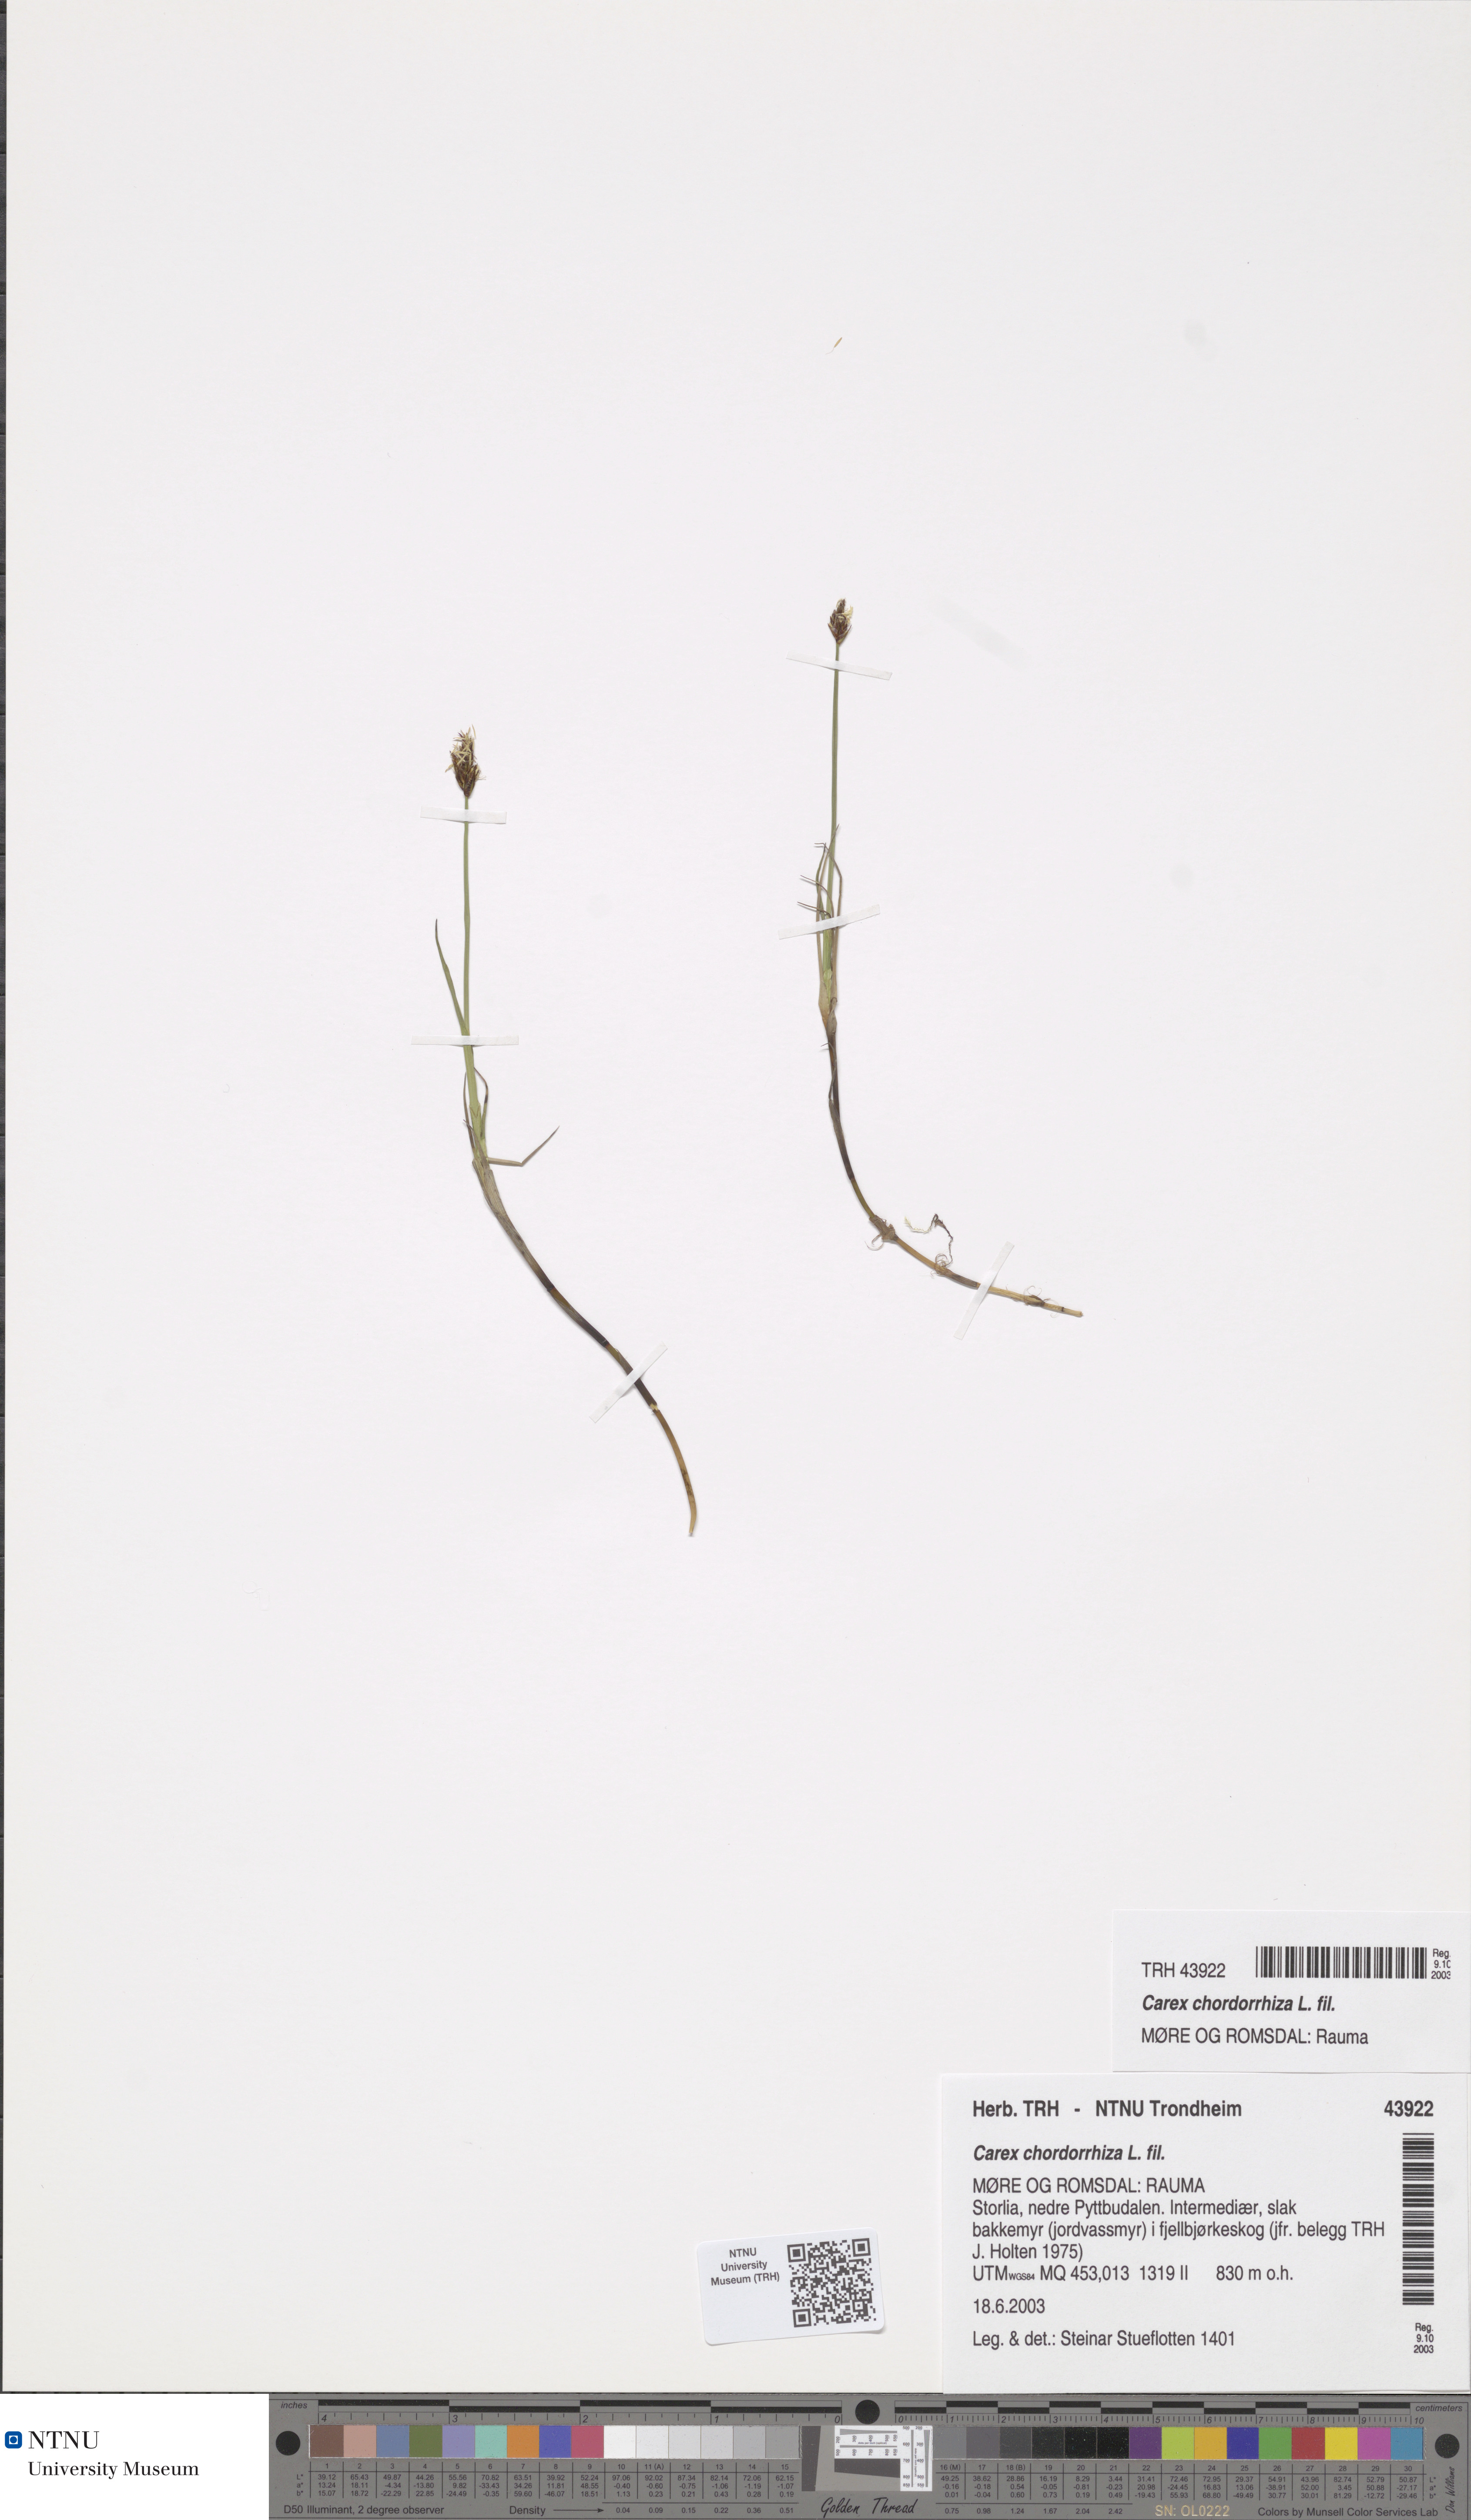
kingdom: Plantae
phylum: Tracheophyta
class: Liliopsida
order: Poales
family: Cyperaceae
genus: Carex
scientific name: Carex chordorrhiza
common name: String sedge
